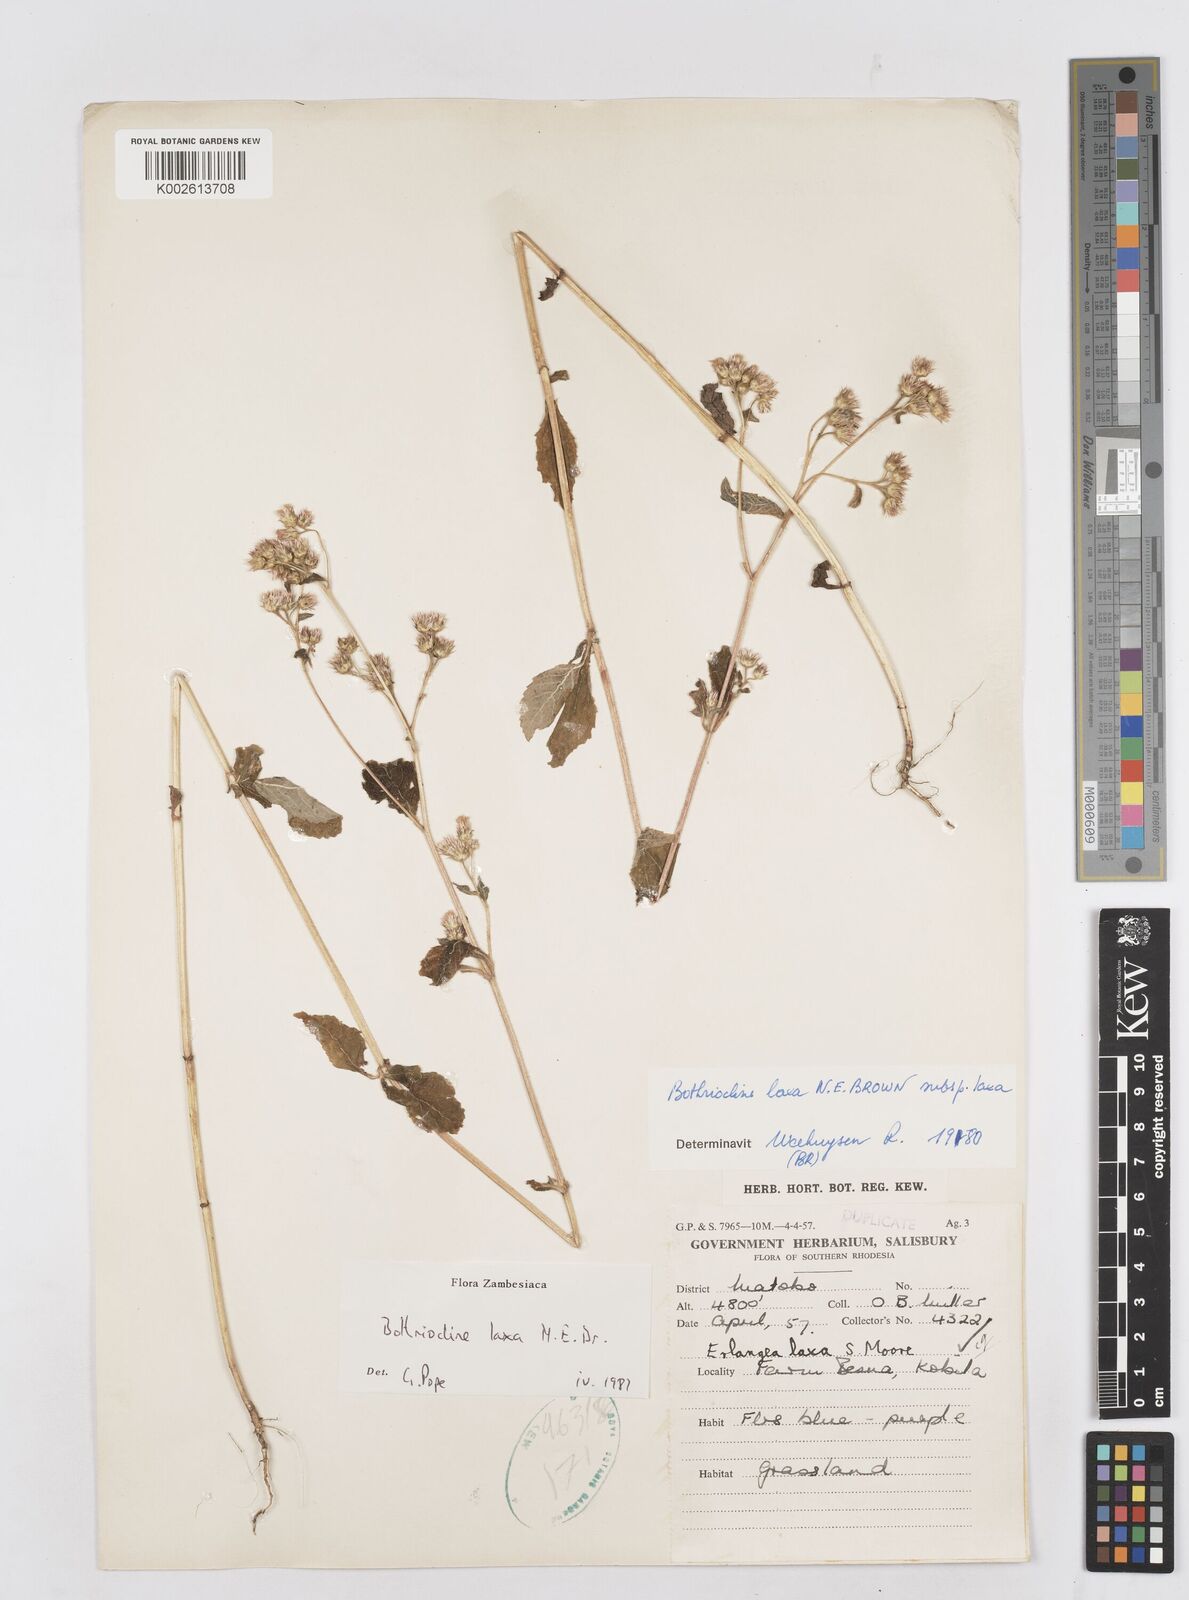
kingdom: Plantae
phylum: Tracheophyta
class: Magnoliopsida
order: Asterales
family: Asteraceae
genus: Bothriocline
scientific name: Bothriocline laxa
